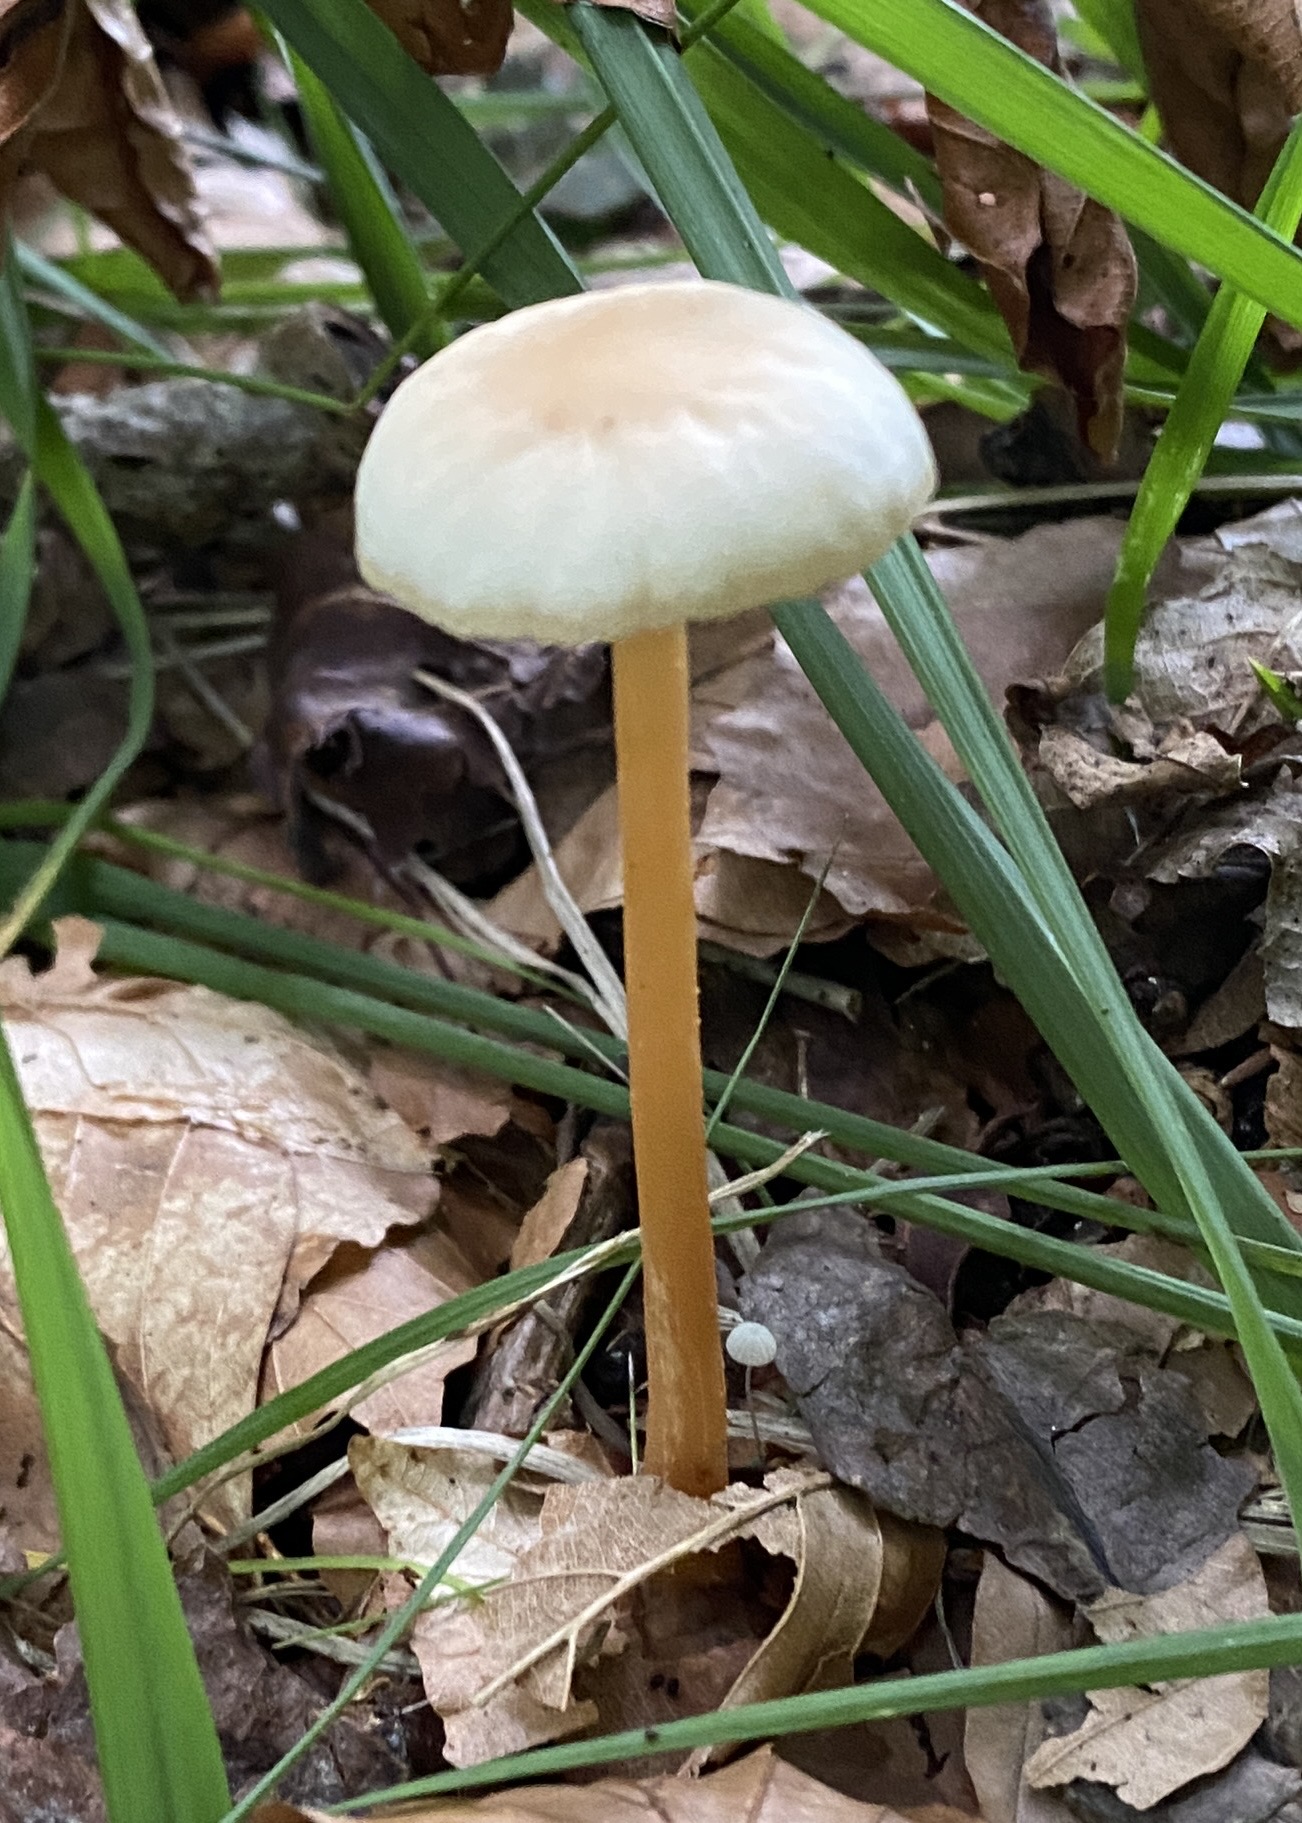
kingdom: Fungi
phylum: Basidiomycota
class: Agaricomycetes
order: Agaricales
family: Omphalotaceae
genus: Gymnopus
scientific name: Gymnopus dryophilus
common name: løv-fladhat
